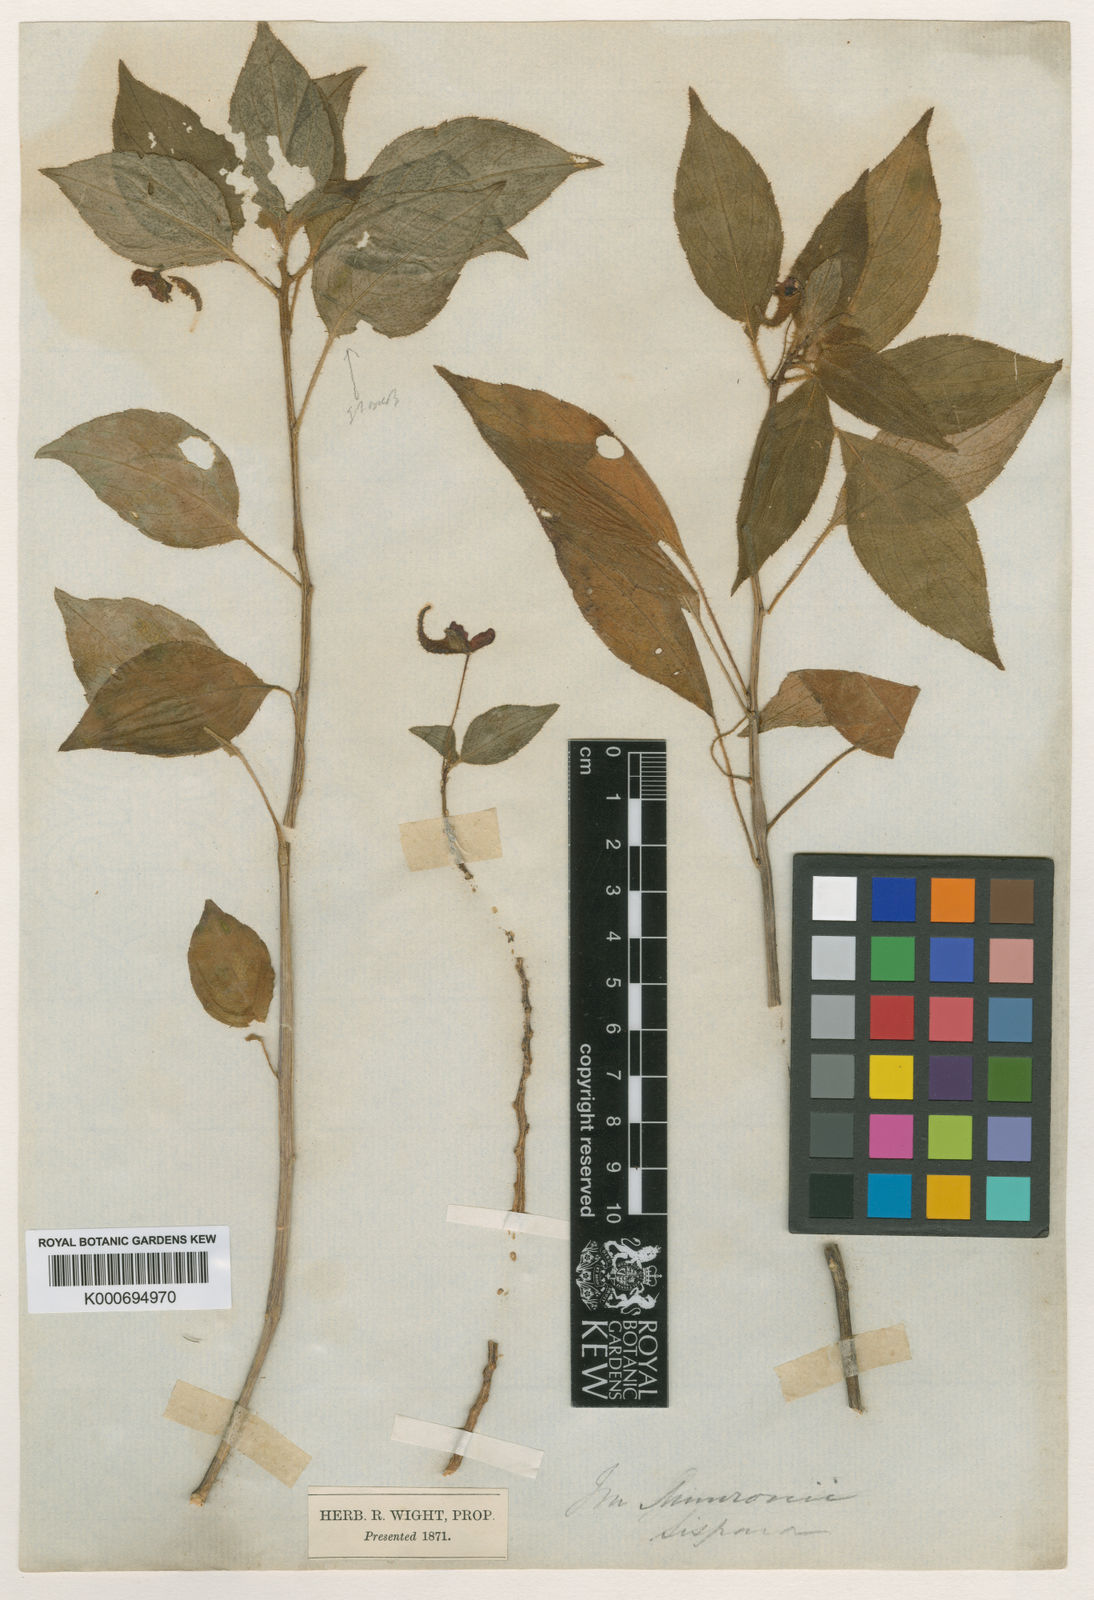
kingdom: Plantae
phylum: Tracheophyta
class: Magnoliopsida
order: Ericales
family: Balsaminaceae
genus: Impatiens
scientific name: Impatiens munronii
